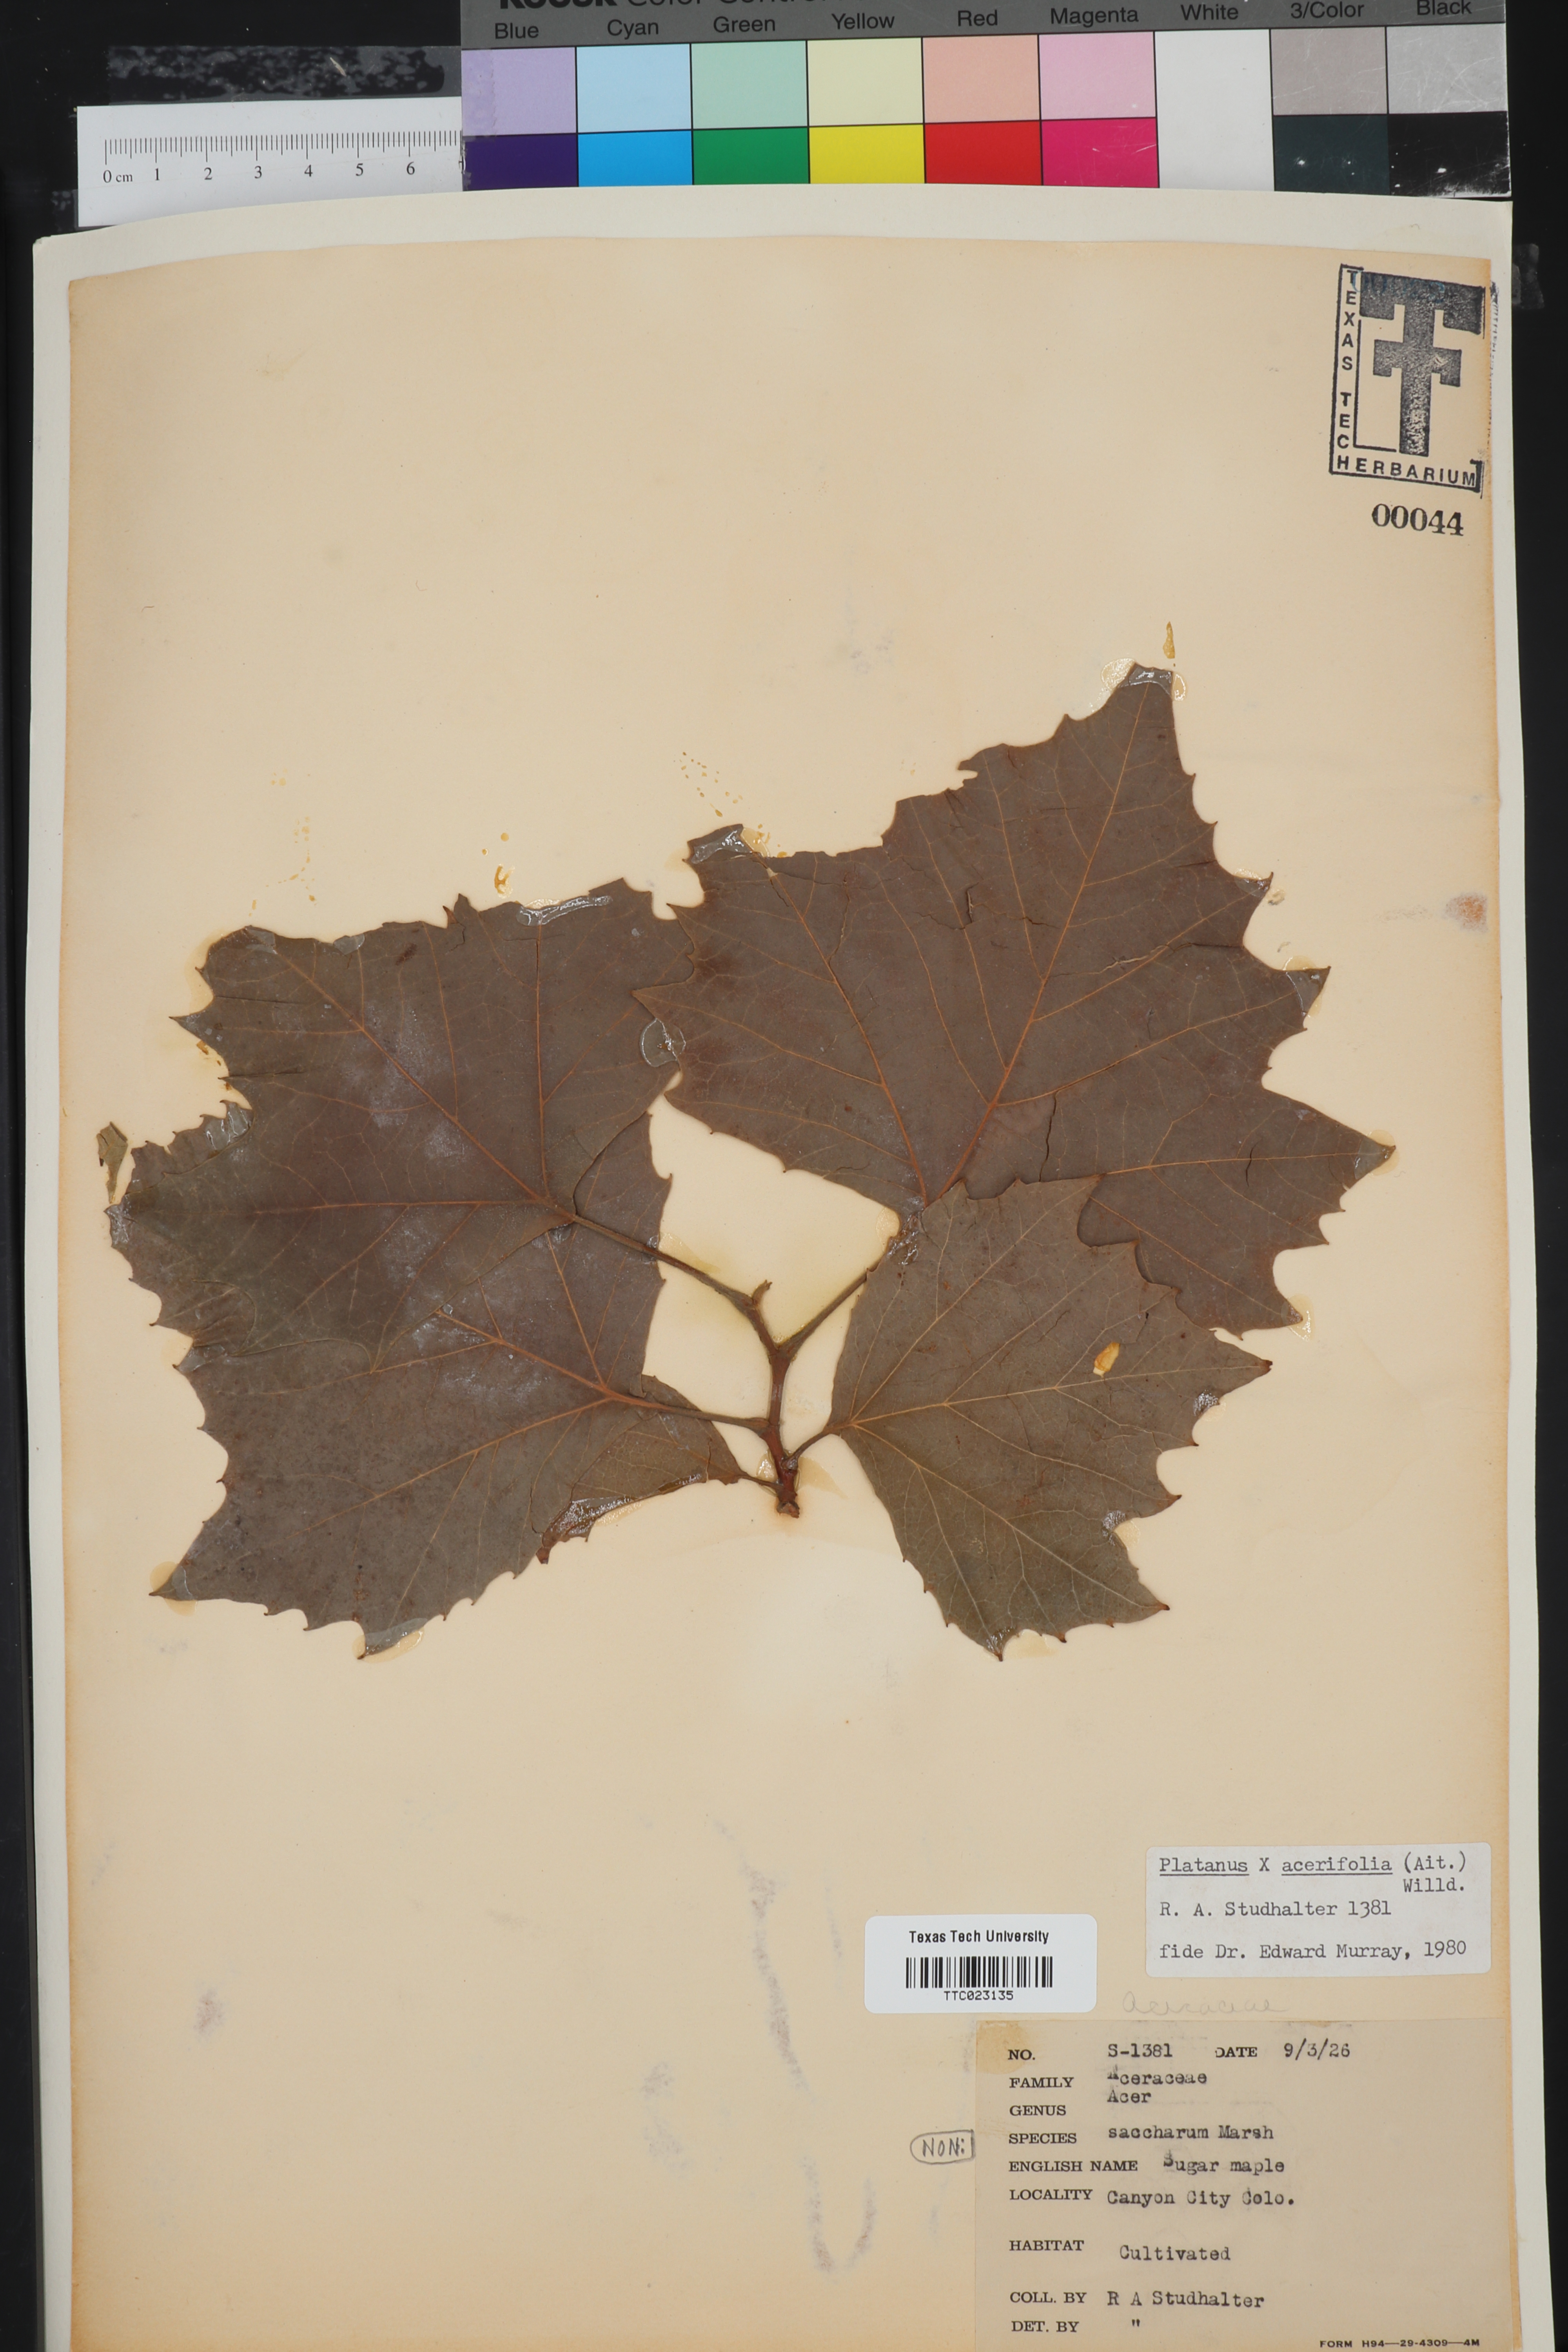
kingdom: Plantae
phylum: Tracheophyta
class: Magnoliopsida
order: Proteales
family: Platanaceae
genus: Platanus
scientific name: Platanus
